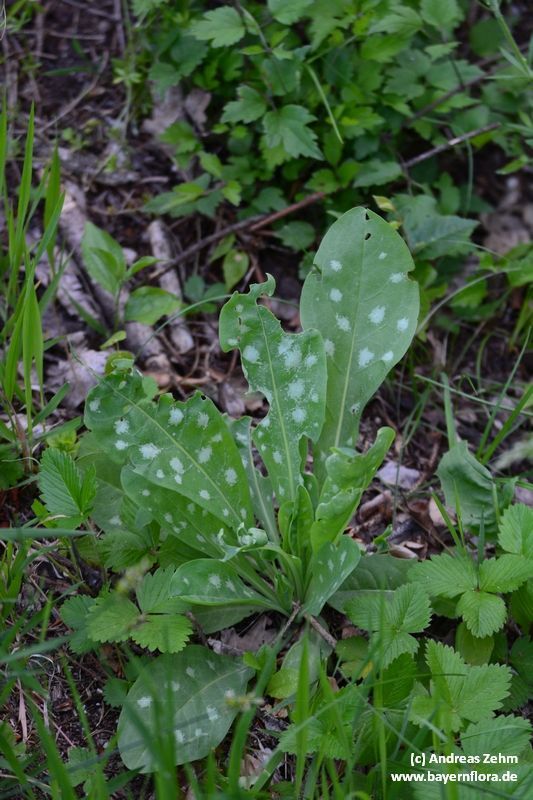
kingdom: Plantae
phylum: Tracheophyta
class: Magnoliopsida
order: Boraginales
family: Boraginaceae
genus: Cerinthe
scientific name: Cerinthe minor
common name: Lesser honeywort
